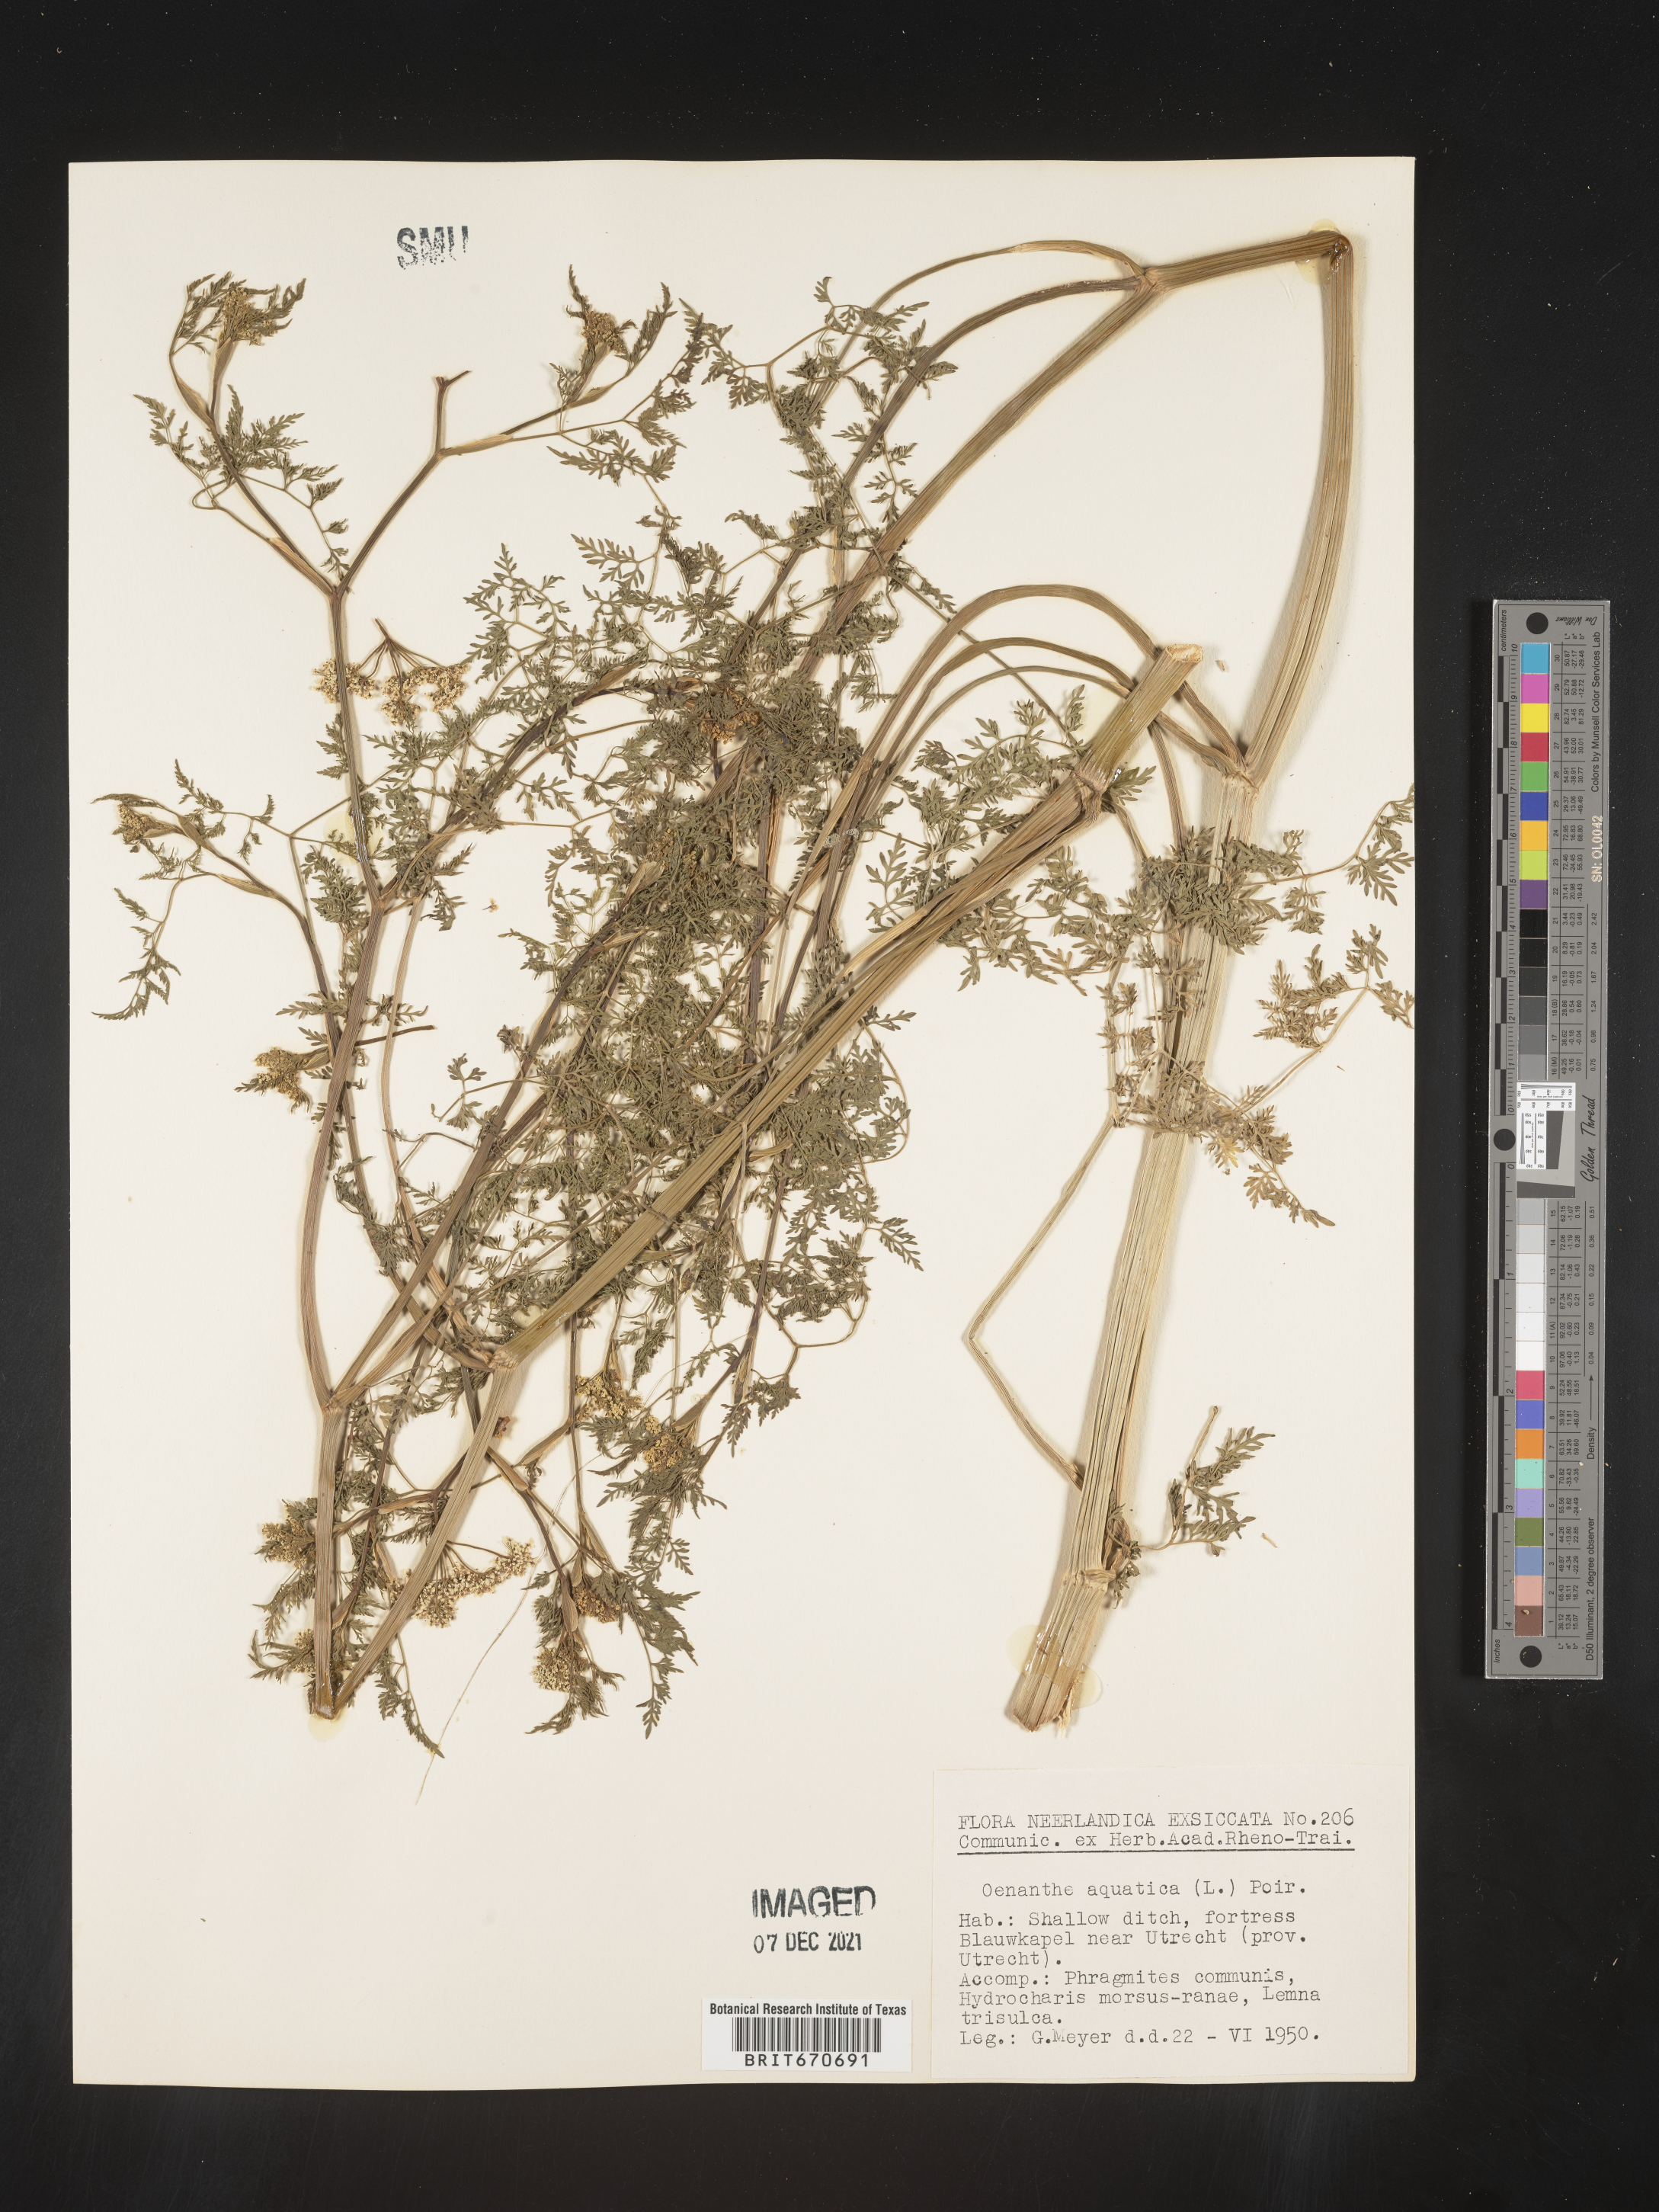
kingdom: Plantae
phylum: Tracheophyta
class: Magnoliopsida
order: Apiales
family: Apiaceae
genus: Oenanthe
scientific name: Oenanthe
